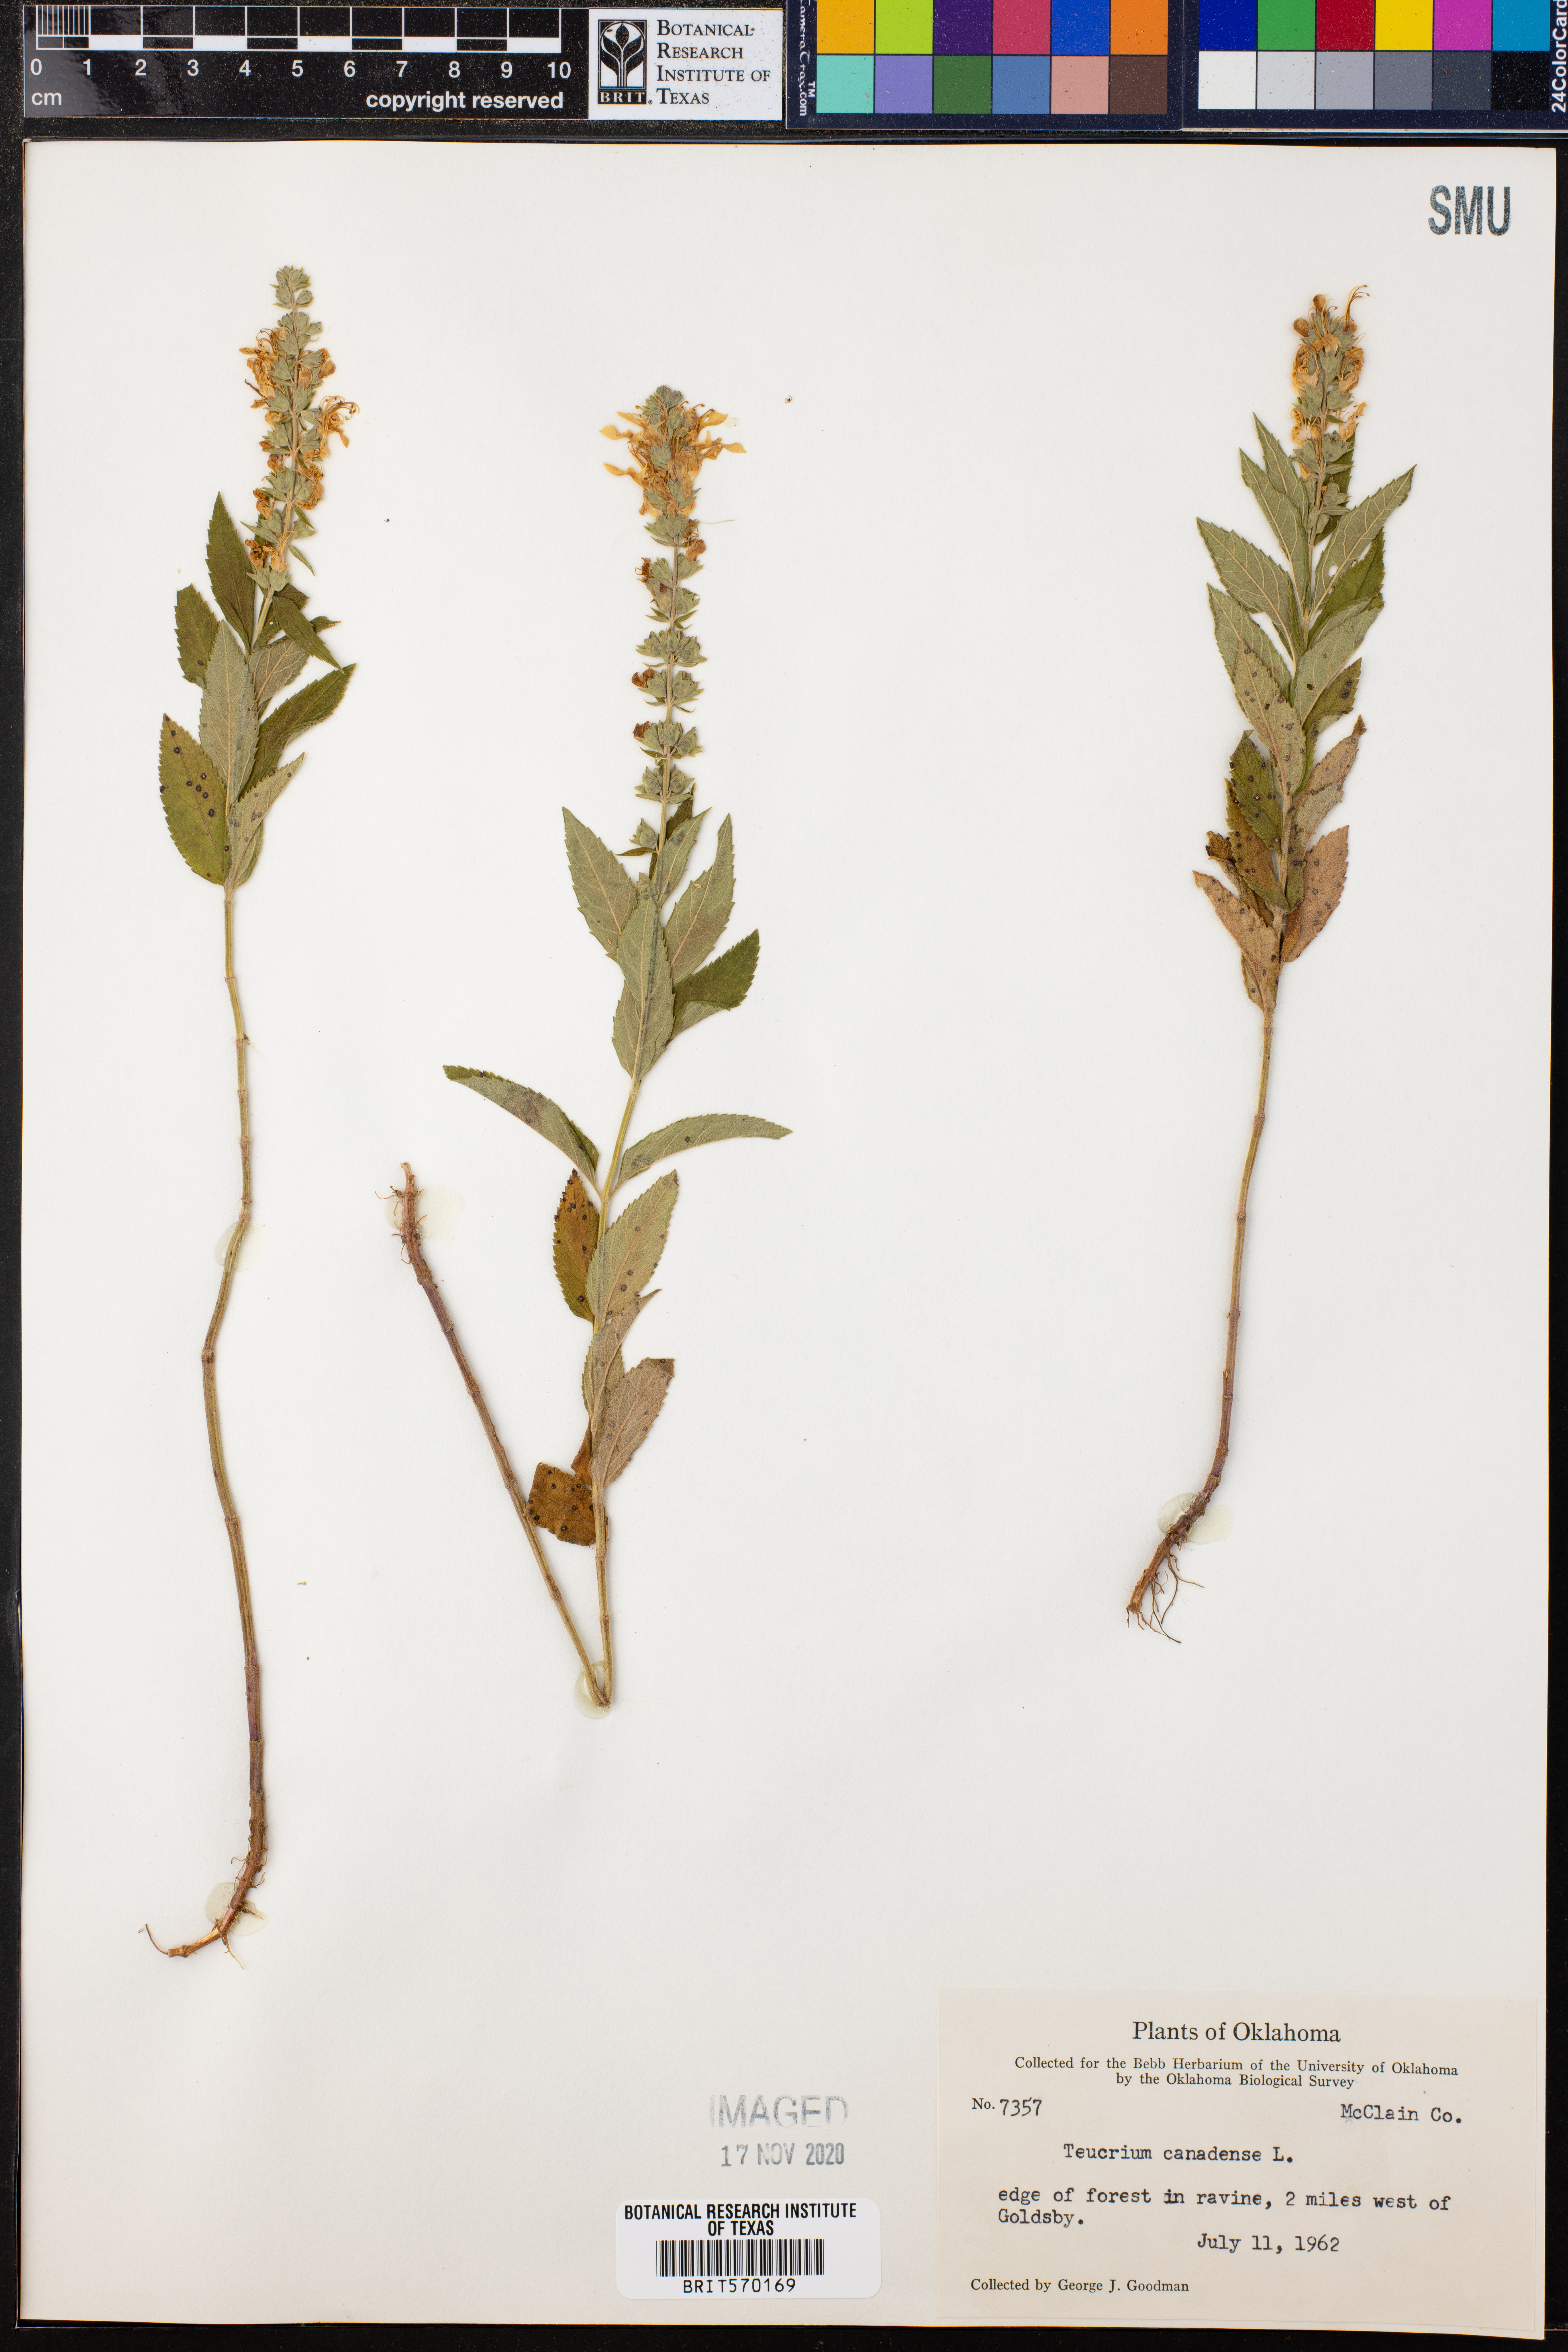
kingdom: Plantae
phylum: Tracheophyta
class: Magnoliopsida
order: Lamiales
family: Lamiaceae
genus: Teucrium
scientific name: Teucrium canadense
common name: American germander
